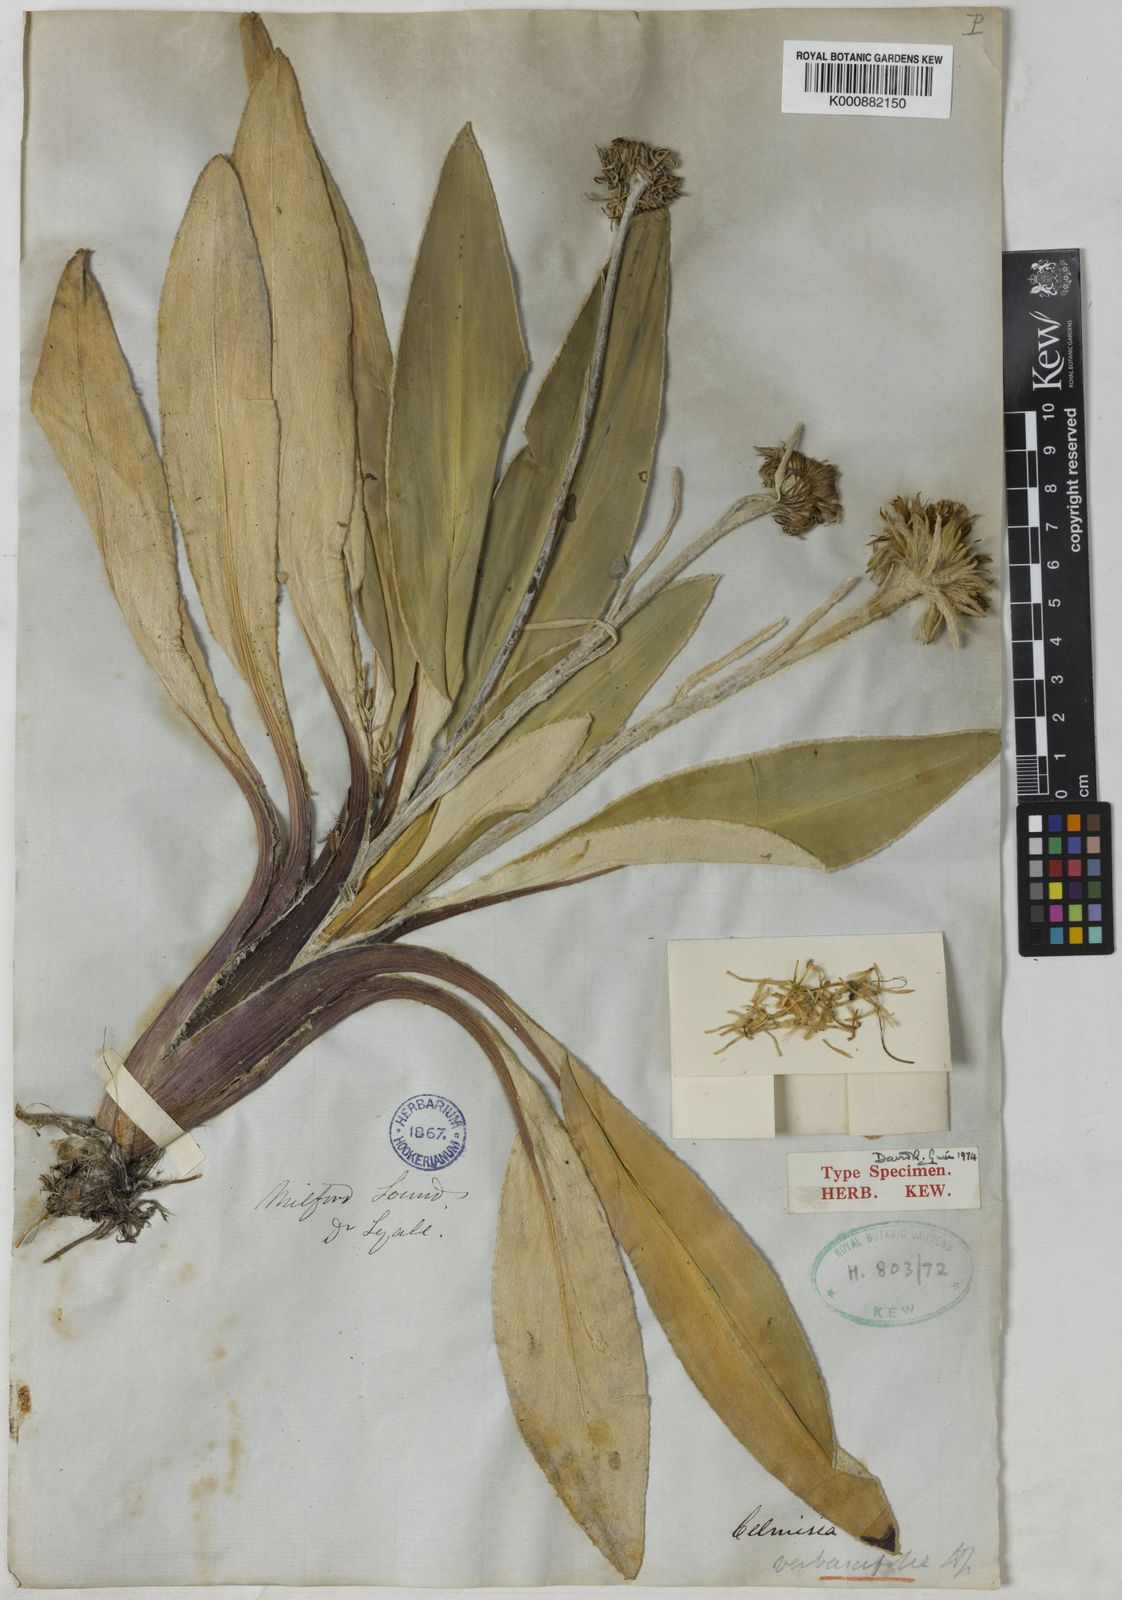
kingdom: Plantae
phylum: Tracheophyta
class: Magnoliopsida
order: Asterales
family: Asteraceae
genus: Celmisia
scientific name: Celmisia verbascifolia
